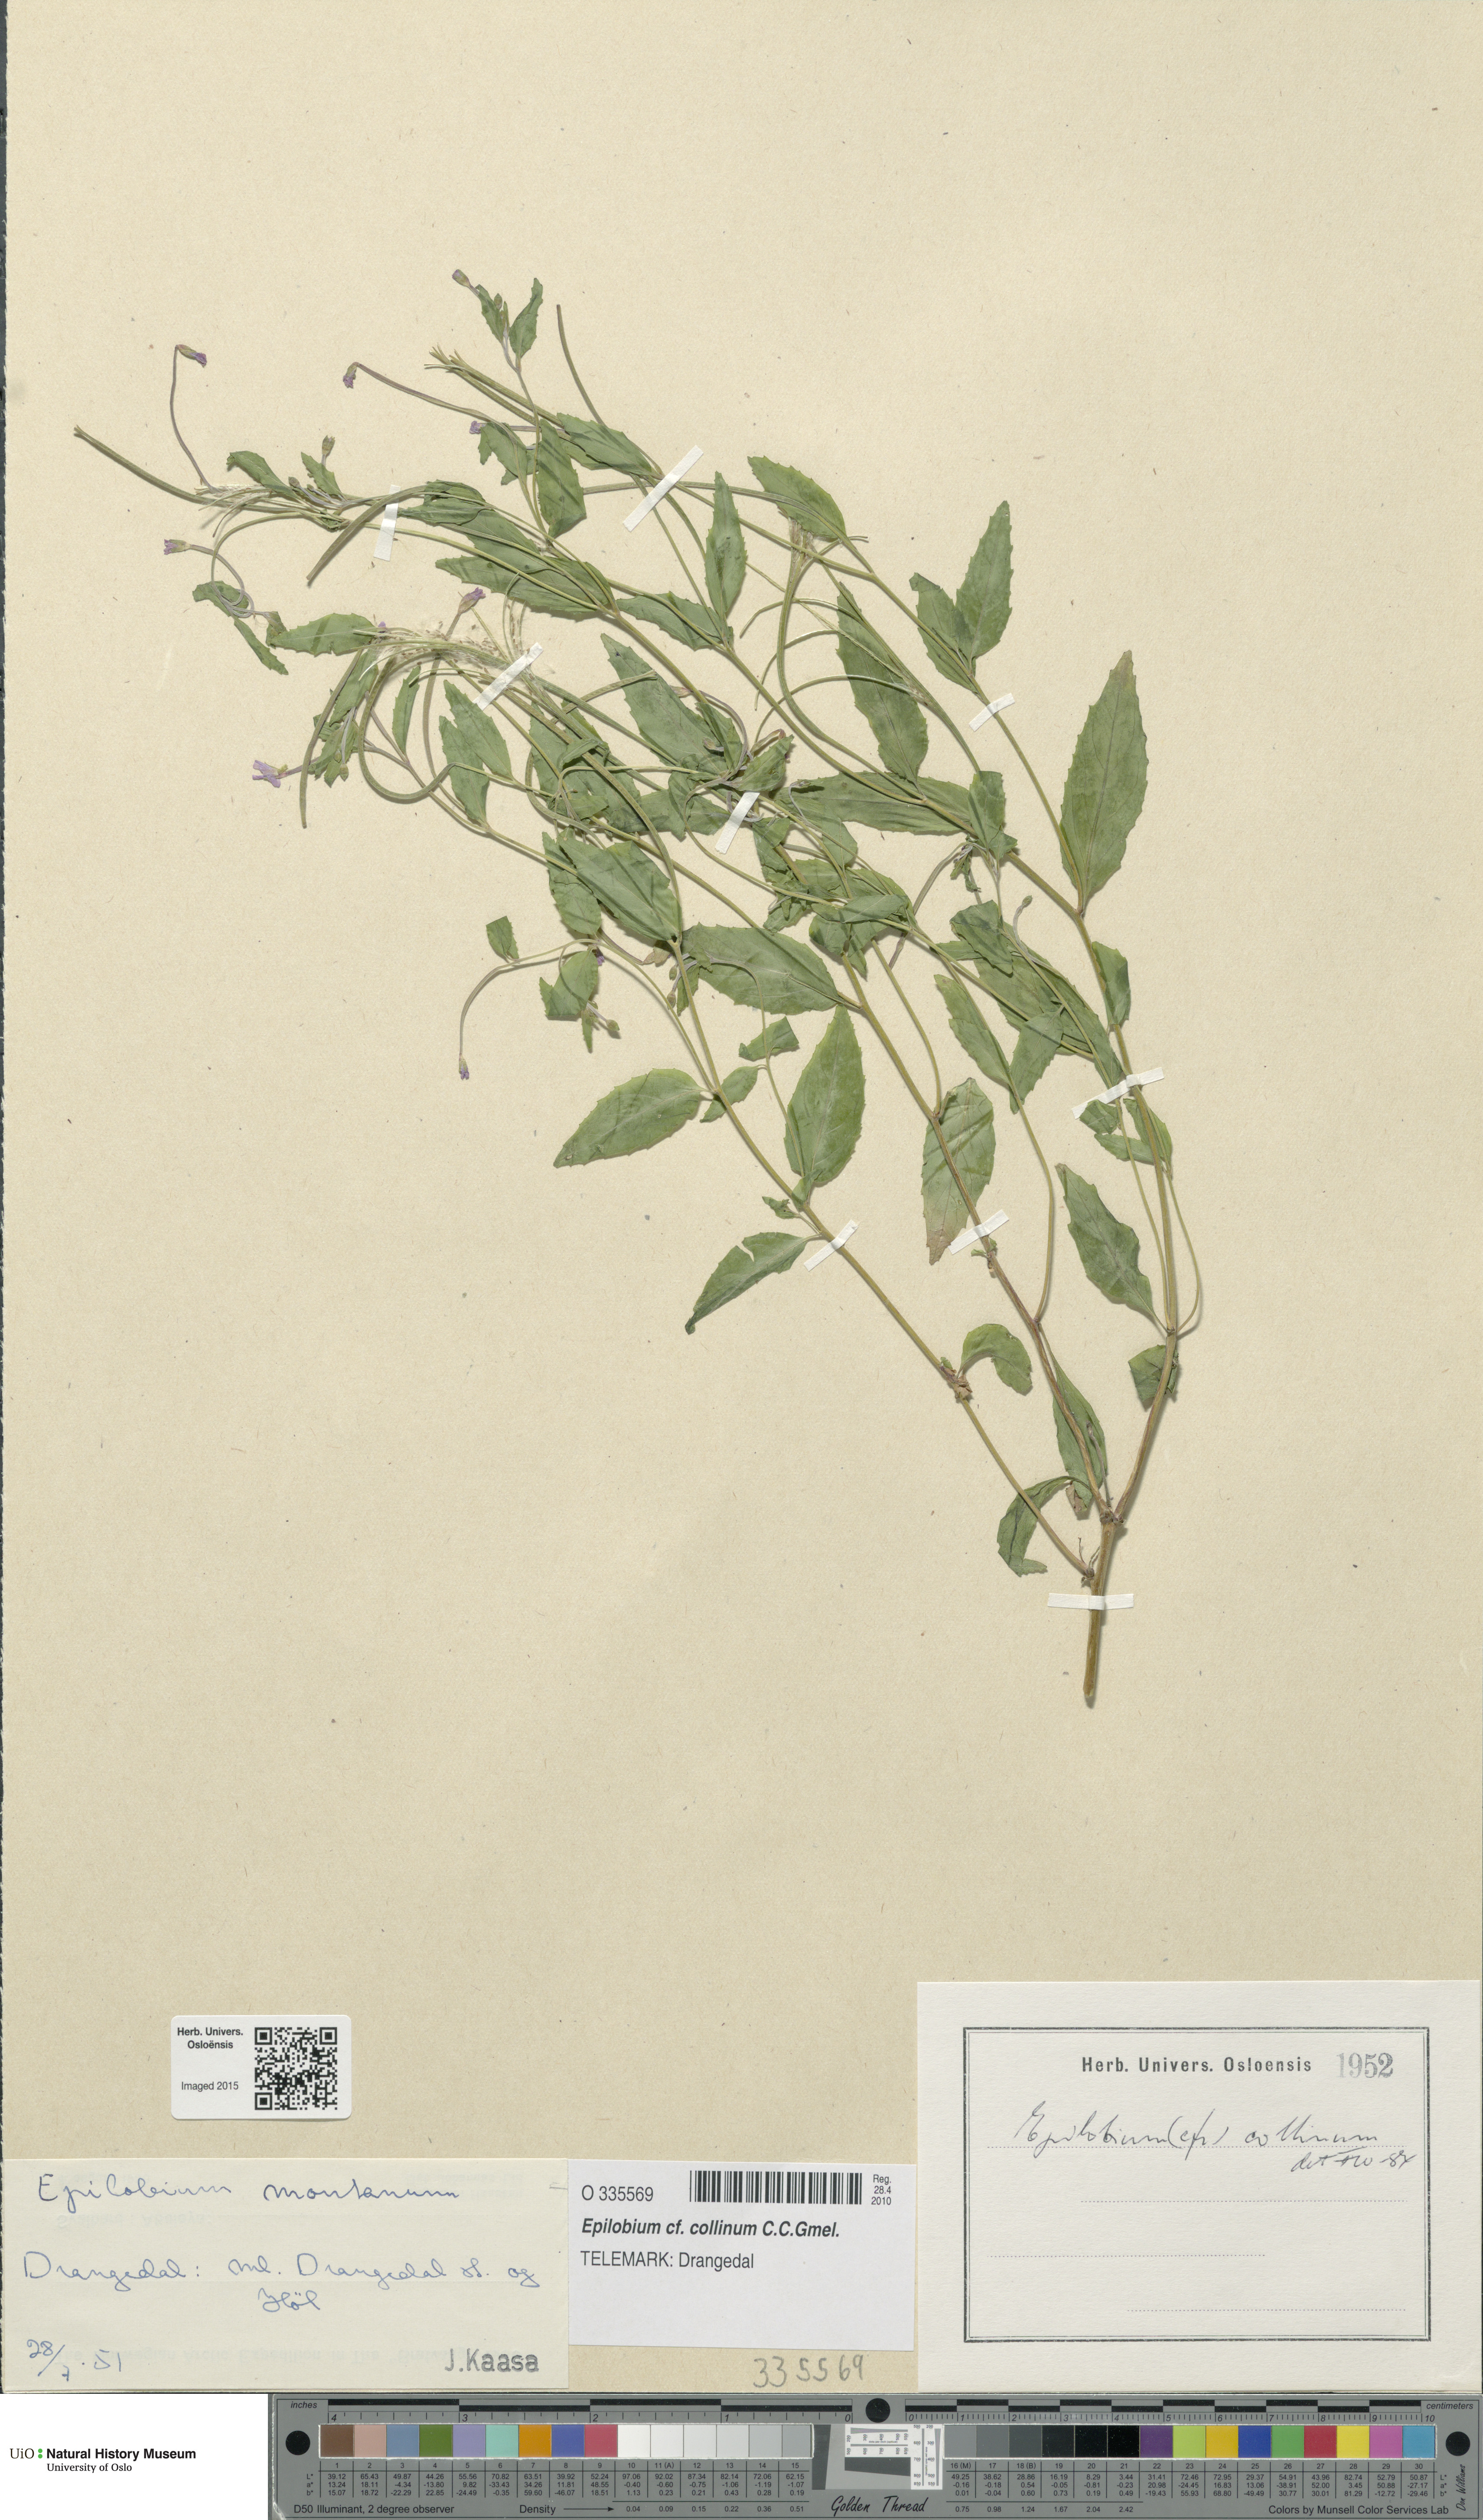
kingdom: Plantae
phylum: Tracheophyta
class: Magnoliopsida
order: Myrtales
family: Onagraceae
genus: Epilobium
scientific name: Epilobium collinum
